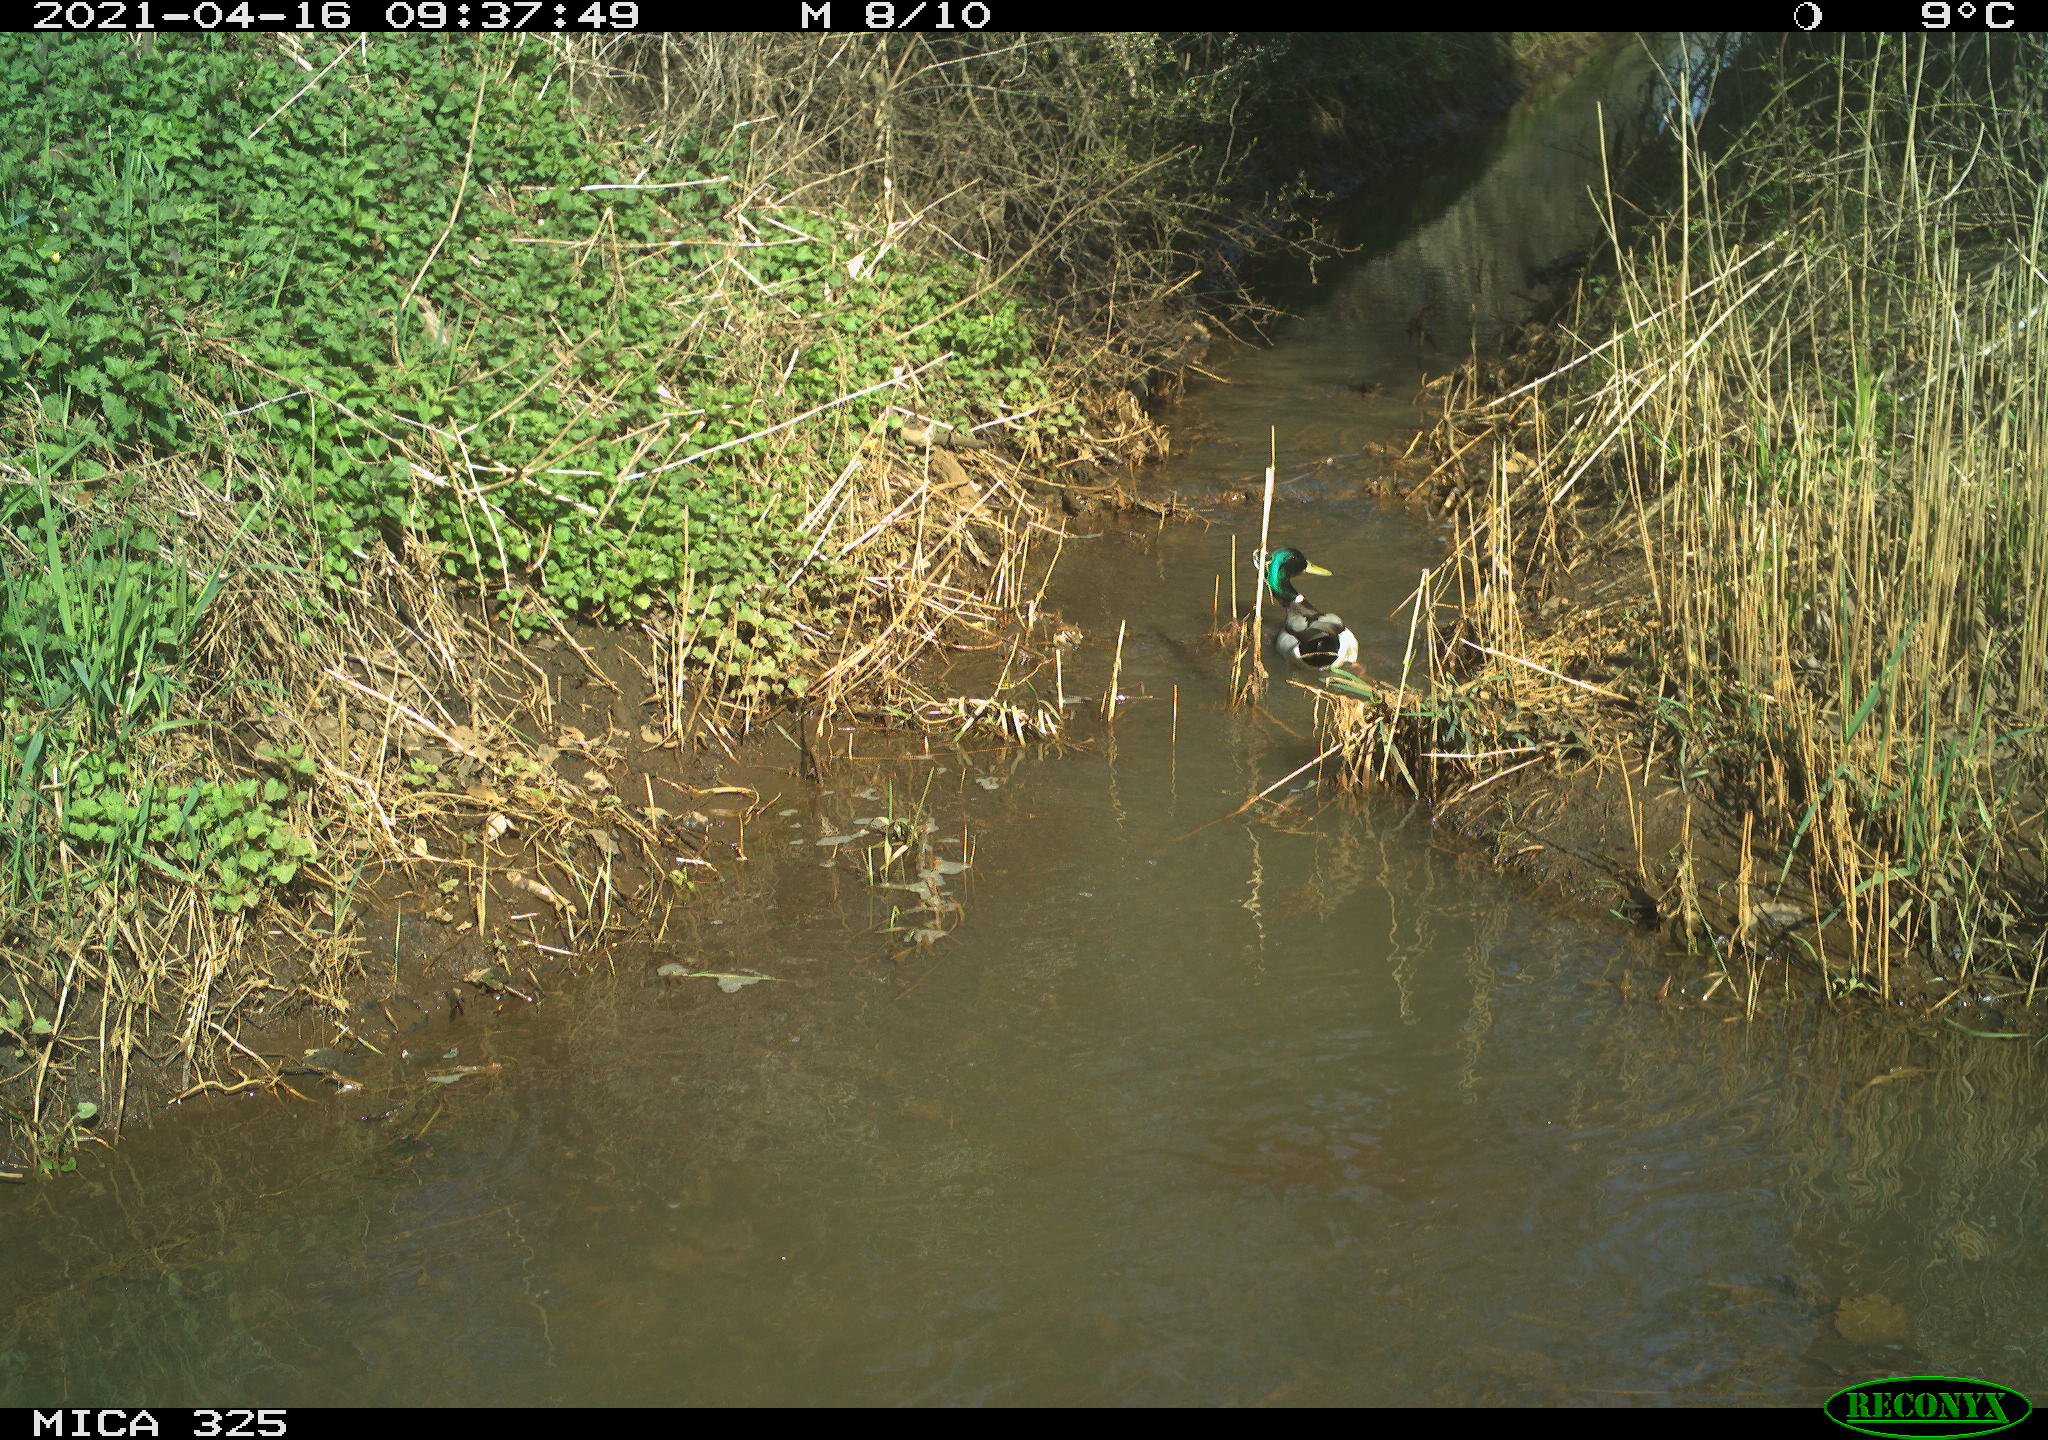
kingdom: Animalia
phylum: Chordata
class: Aves
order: Anseriformes
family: Anatidae
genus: Anas
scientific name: Anas platyrhynchos
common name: Mallard
